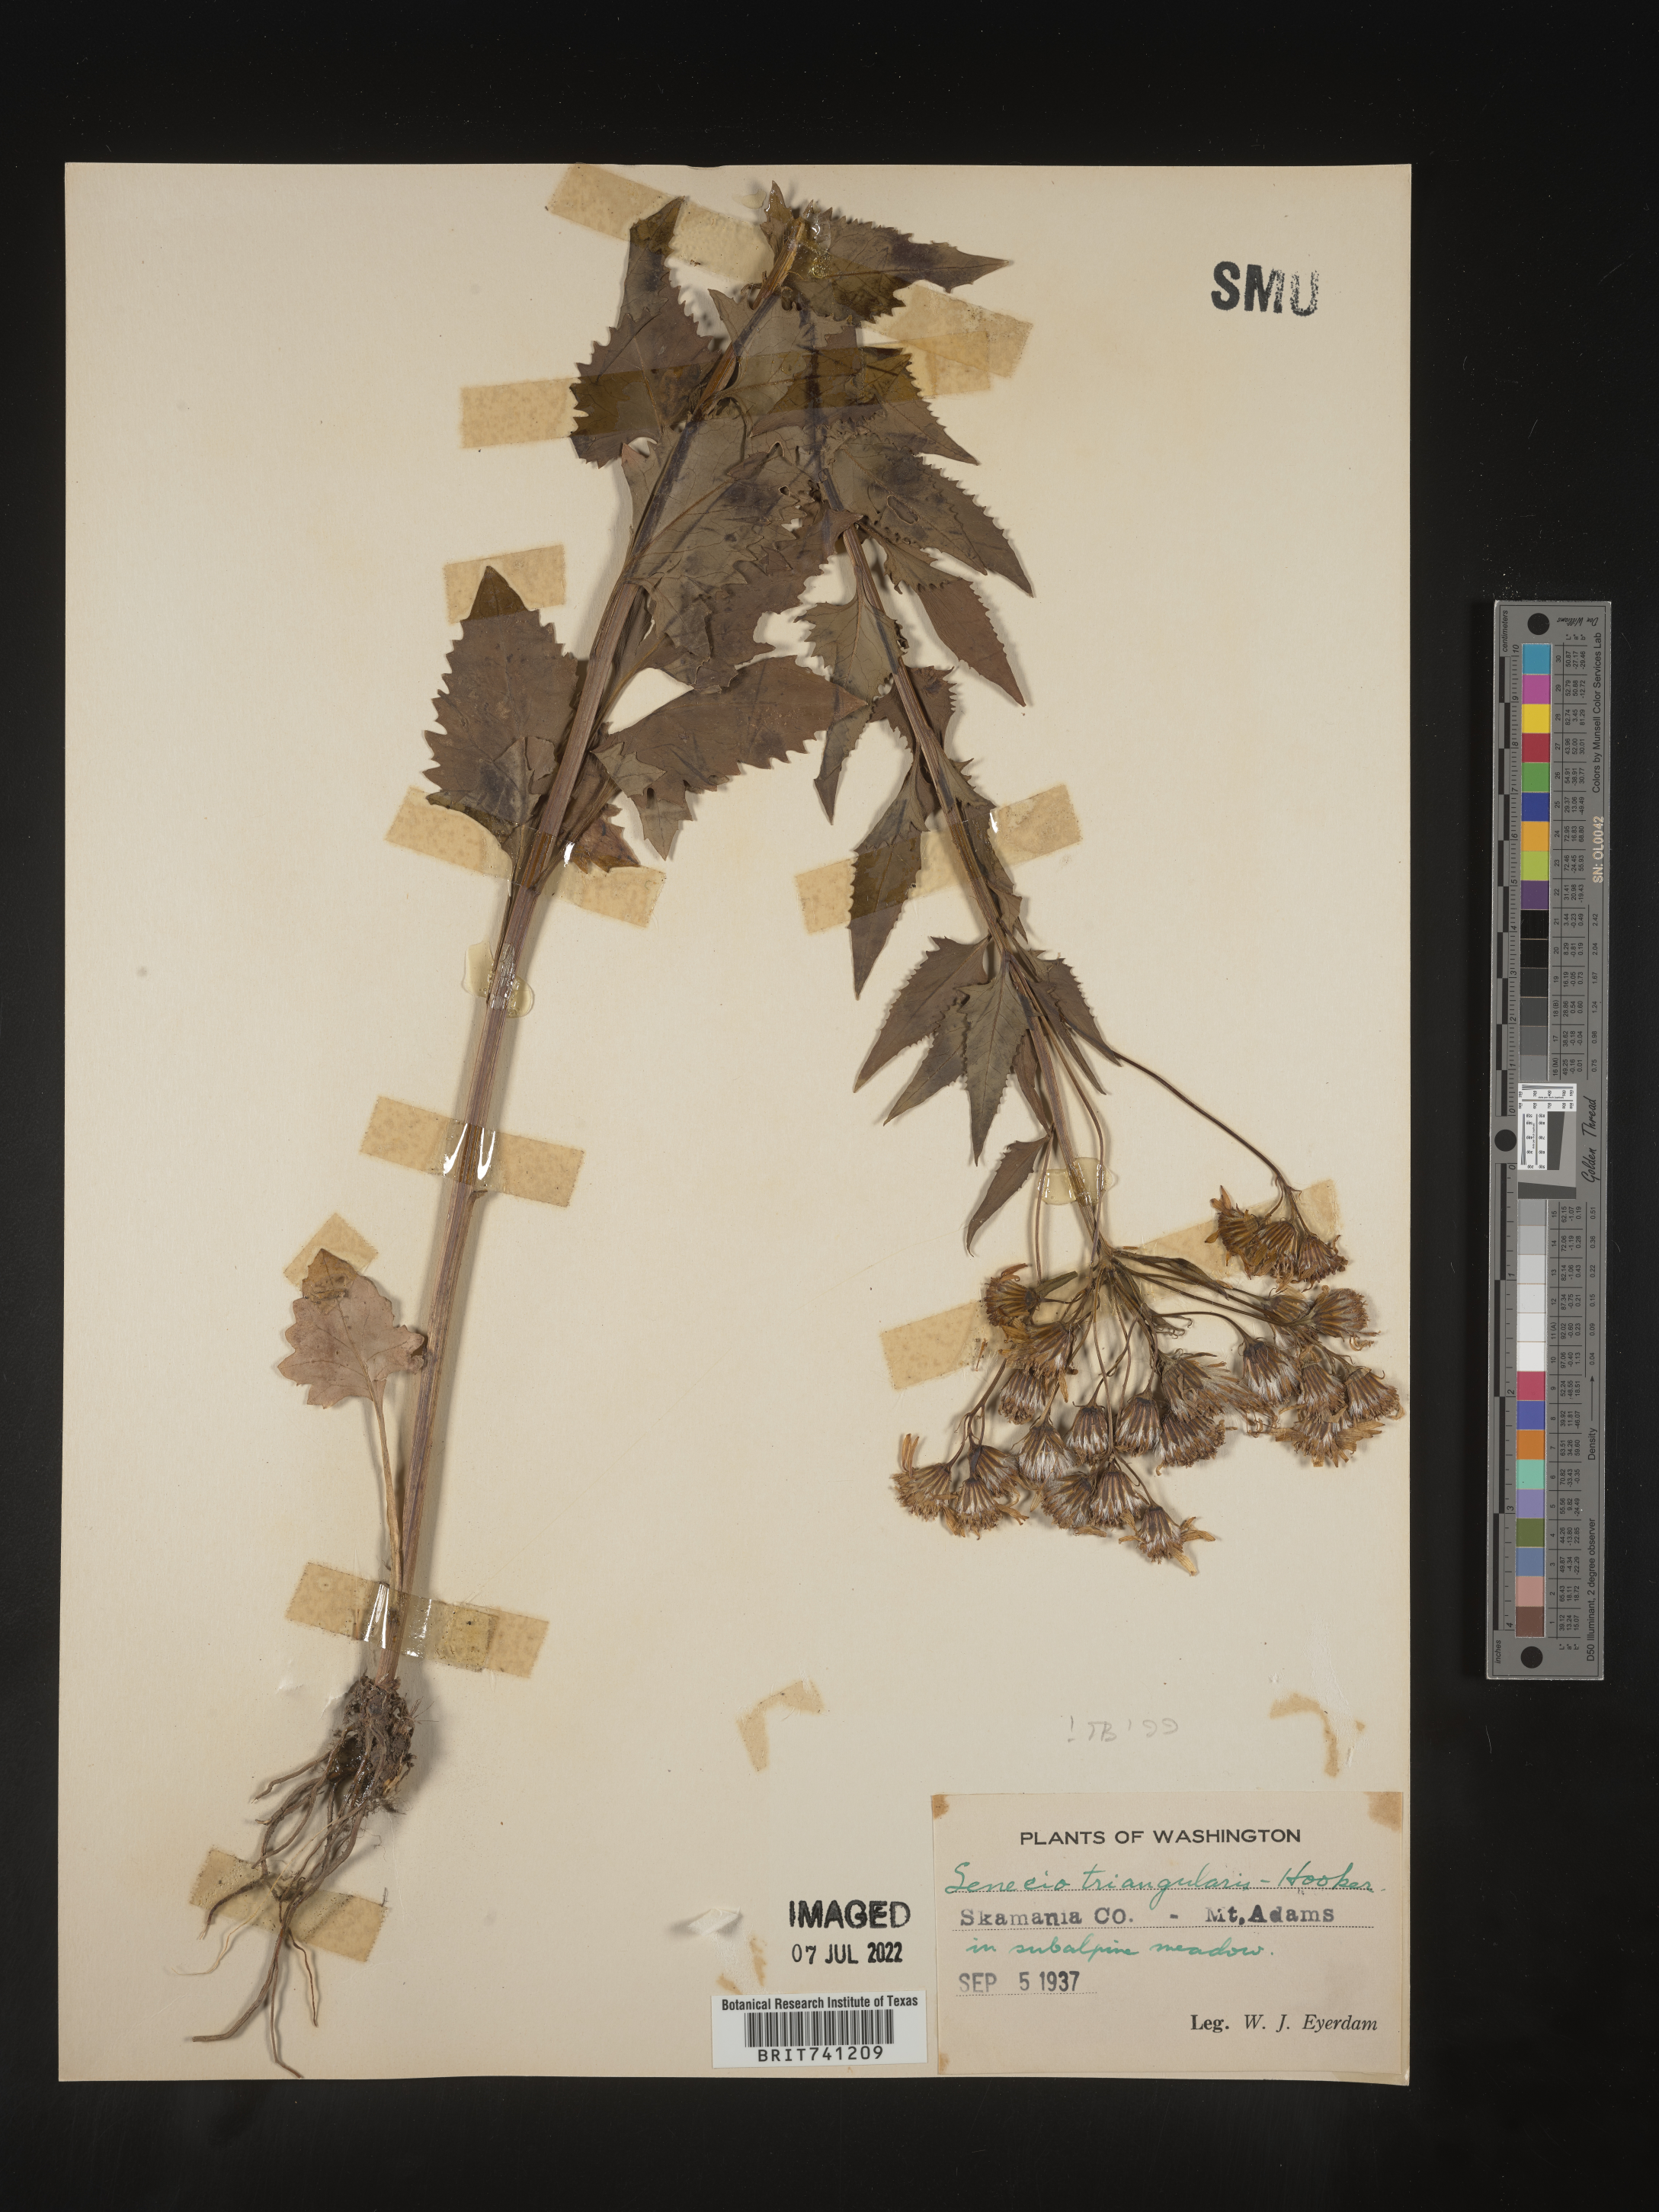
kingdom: Plantae
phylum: Tracheophyta
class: Magnoliopsida
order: Asterales
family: Asteraceae
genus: Senecio
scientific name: Senecio triangularis
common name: Arrowleaf butterweed
